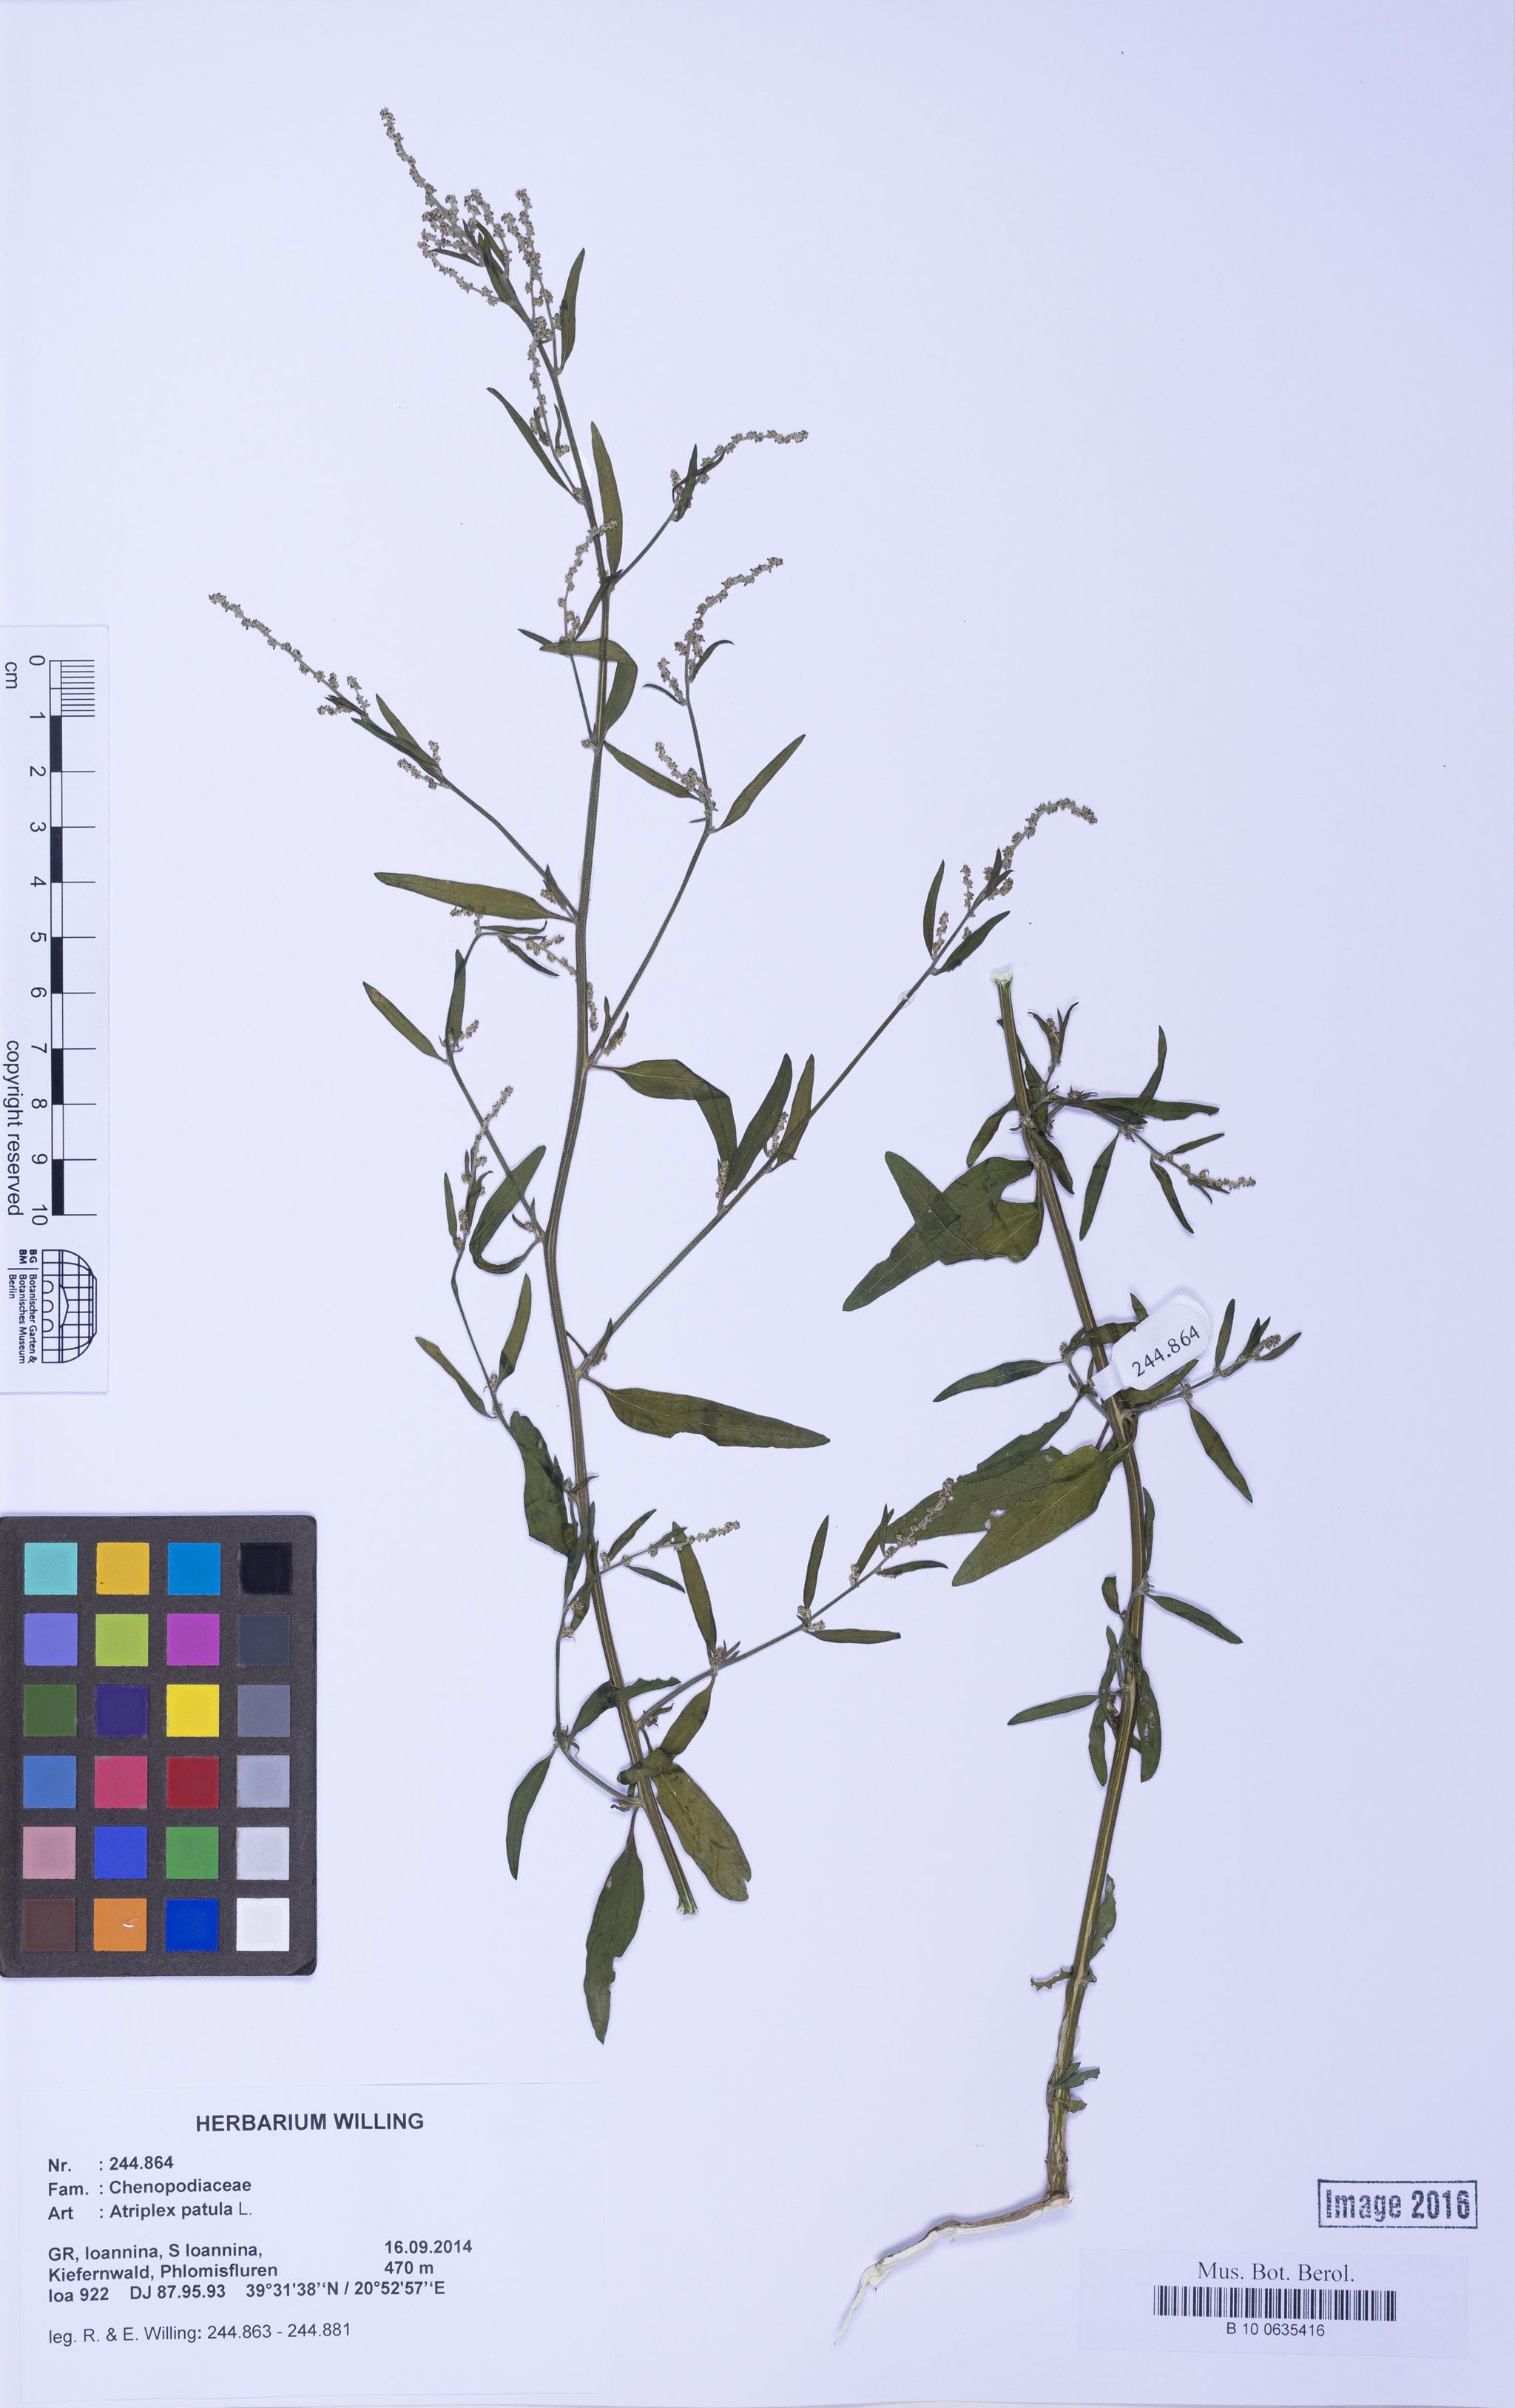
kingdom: Plantae
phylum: Tracheophyta
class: Magnoliopsida
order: Caryophyllales
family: Amaranthaceae
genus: Atriplex
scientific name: Atriplex patula
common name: Common orache
